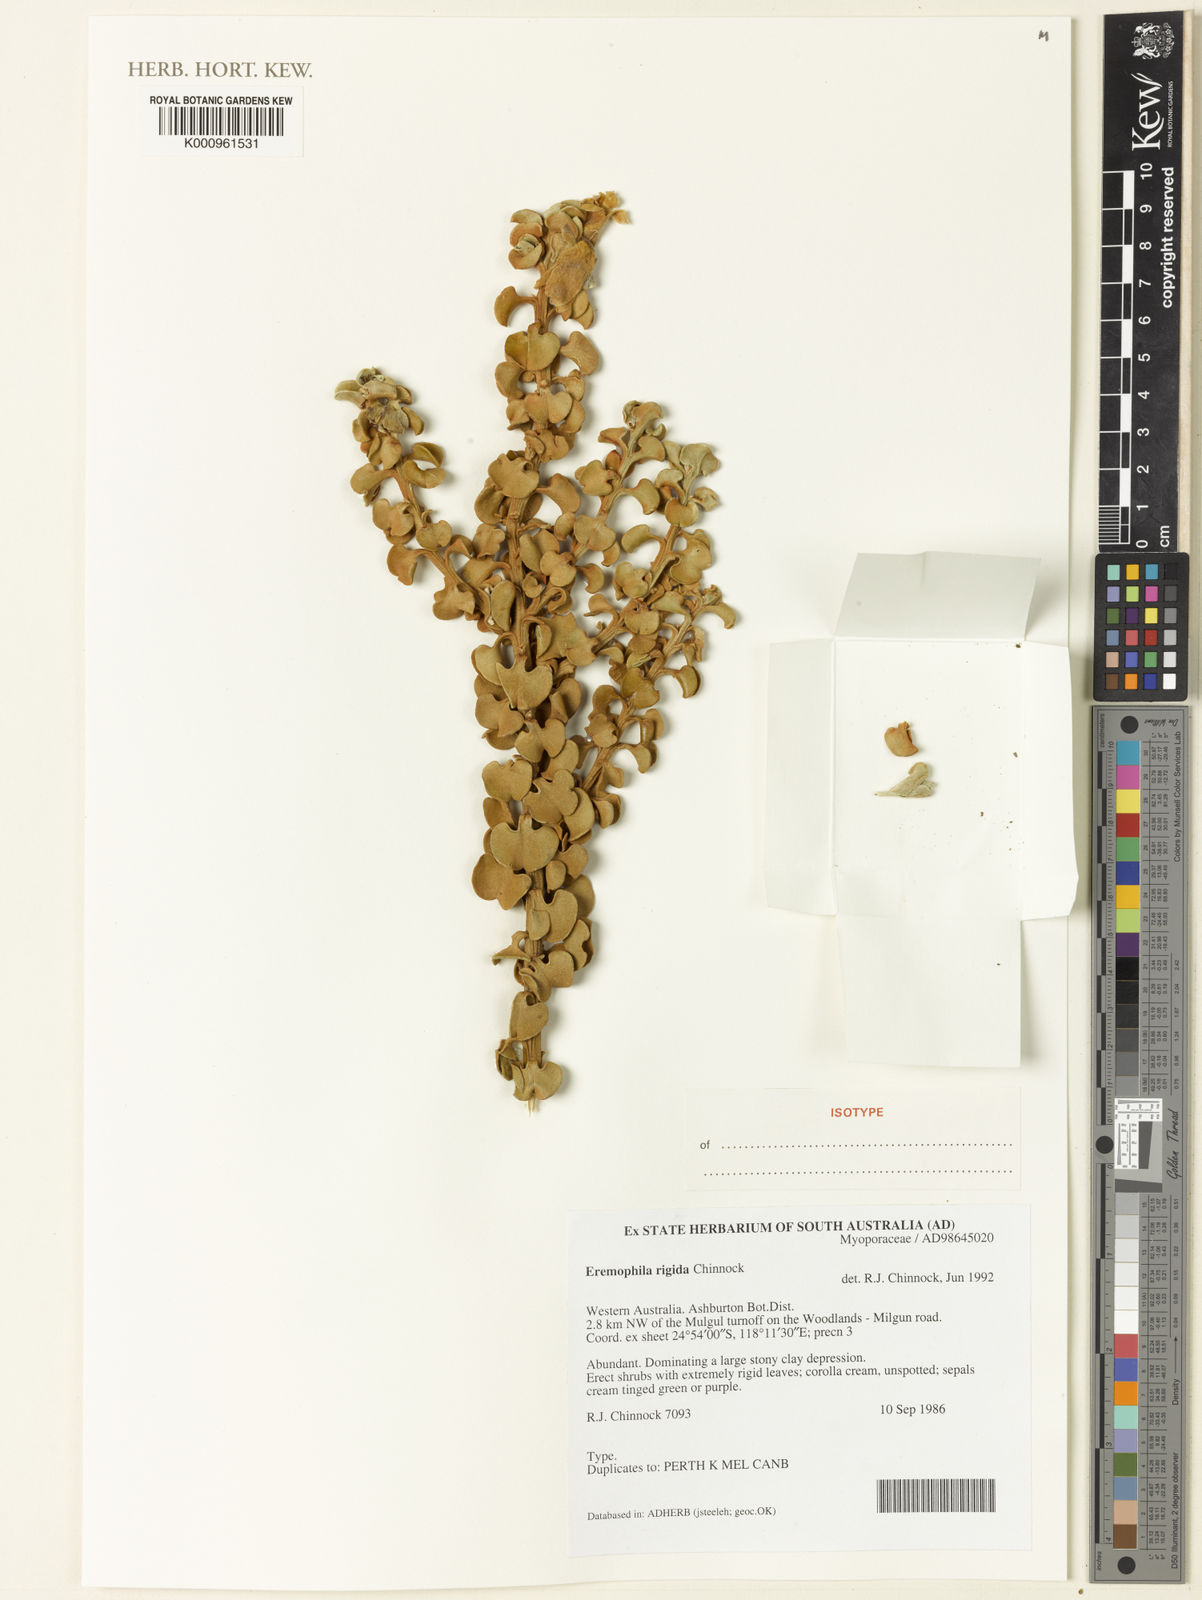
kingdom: Plantae
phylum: Tracheophyta
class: Magnoliopsida
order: Lamiales
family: Scrophulariaceae
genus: Eremophila
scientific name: Eremophila rigida
